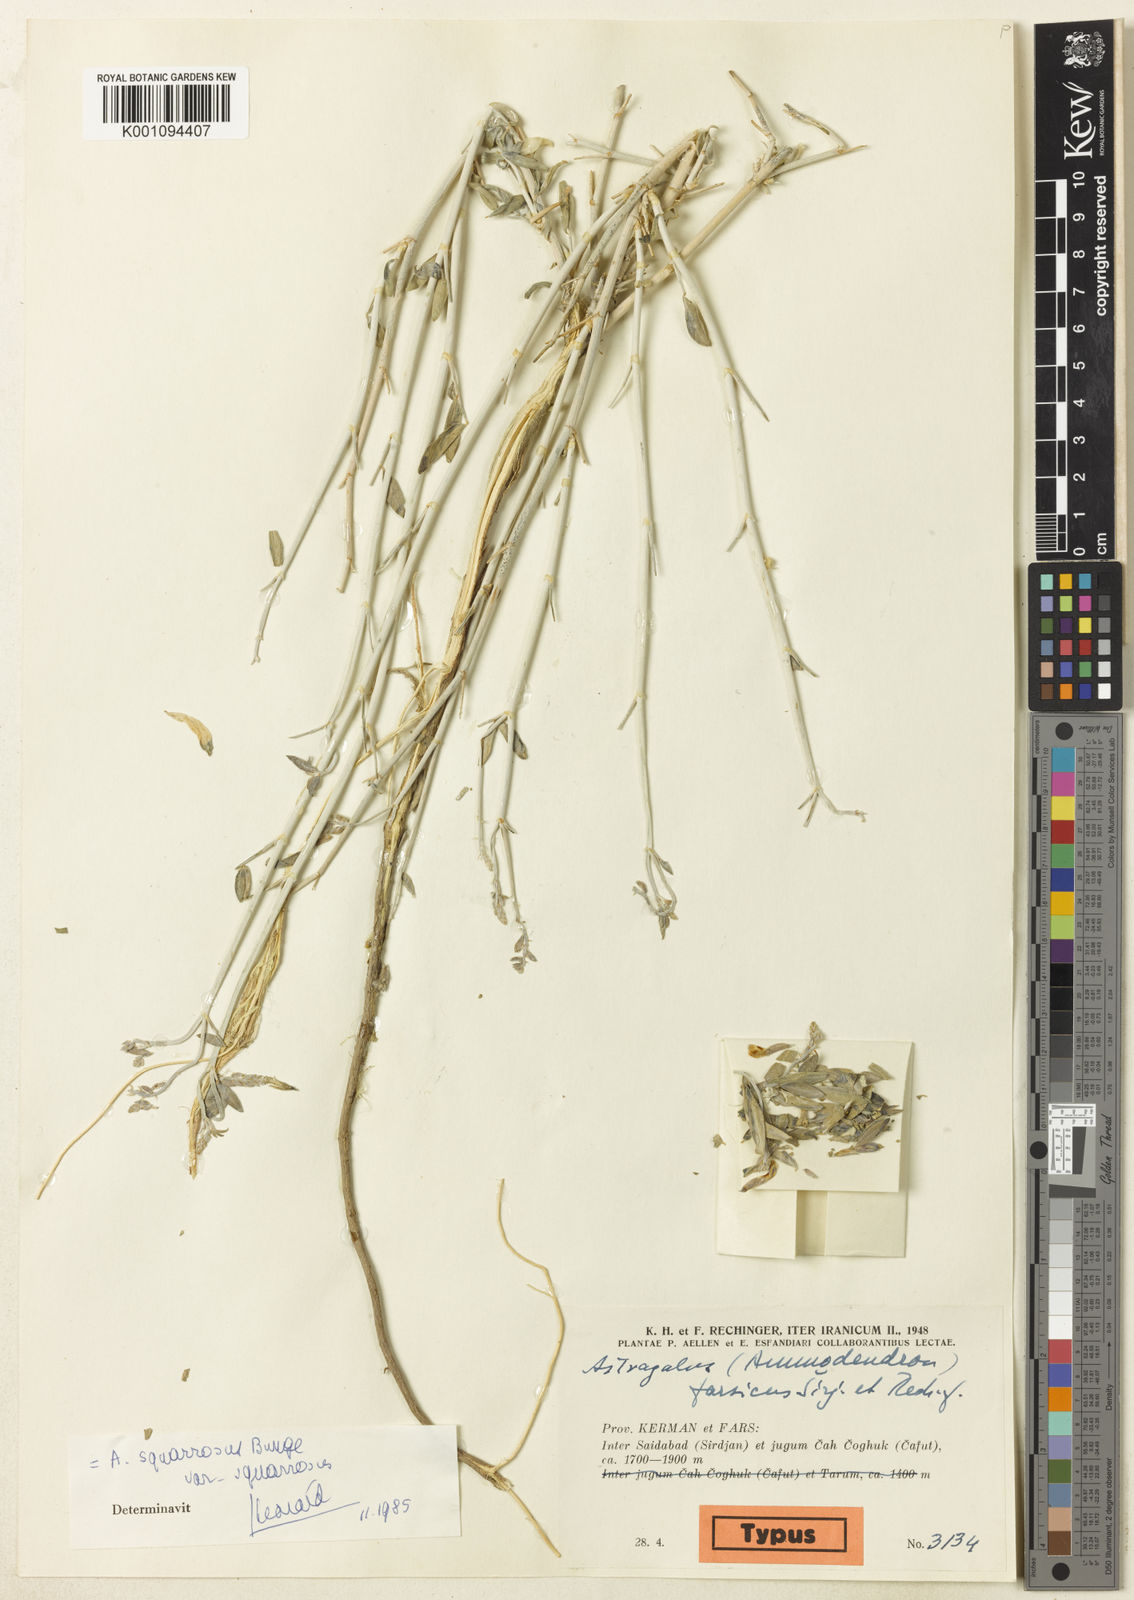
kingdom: Plantae
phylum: Tracheophyta
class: Magnoliopsida
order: Fabales
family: Fabaceae
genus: Astragalus
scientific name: Astragalus
